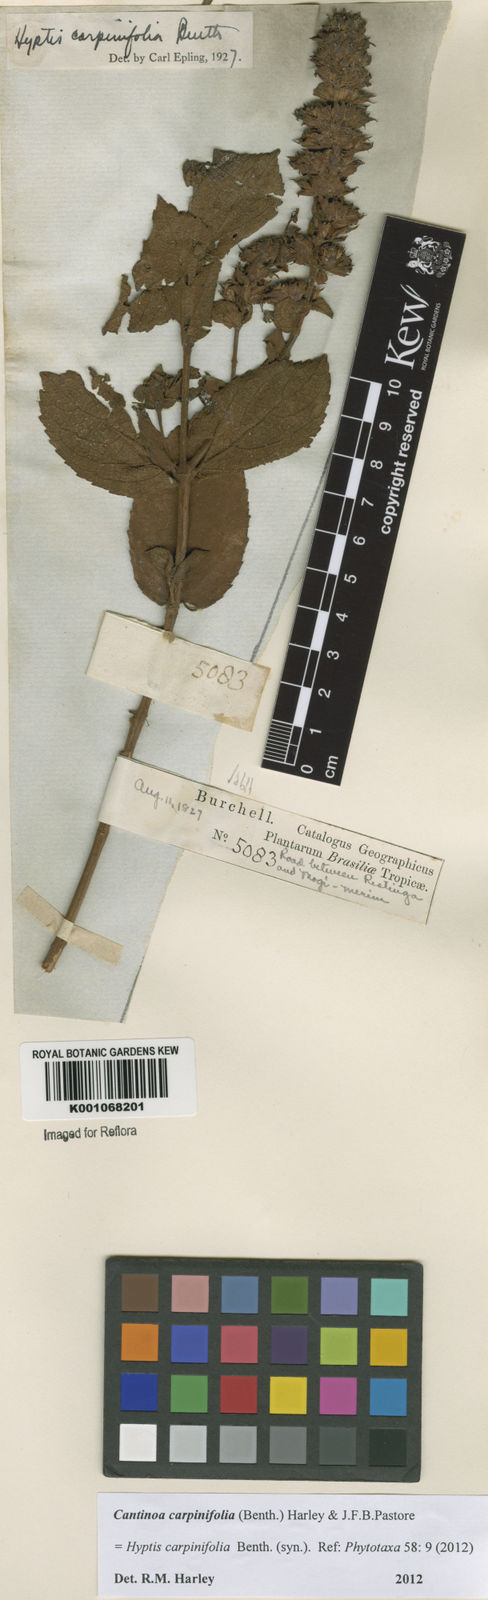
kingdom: Plantae
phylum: Tracheophyta
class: Magnoliopsida
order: Lamiales
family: Lamiaceae
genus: Cantinoa
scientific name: Cantinoa carpinifolia
